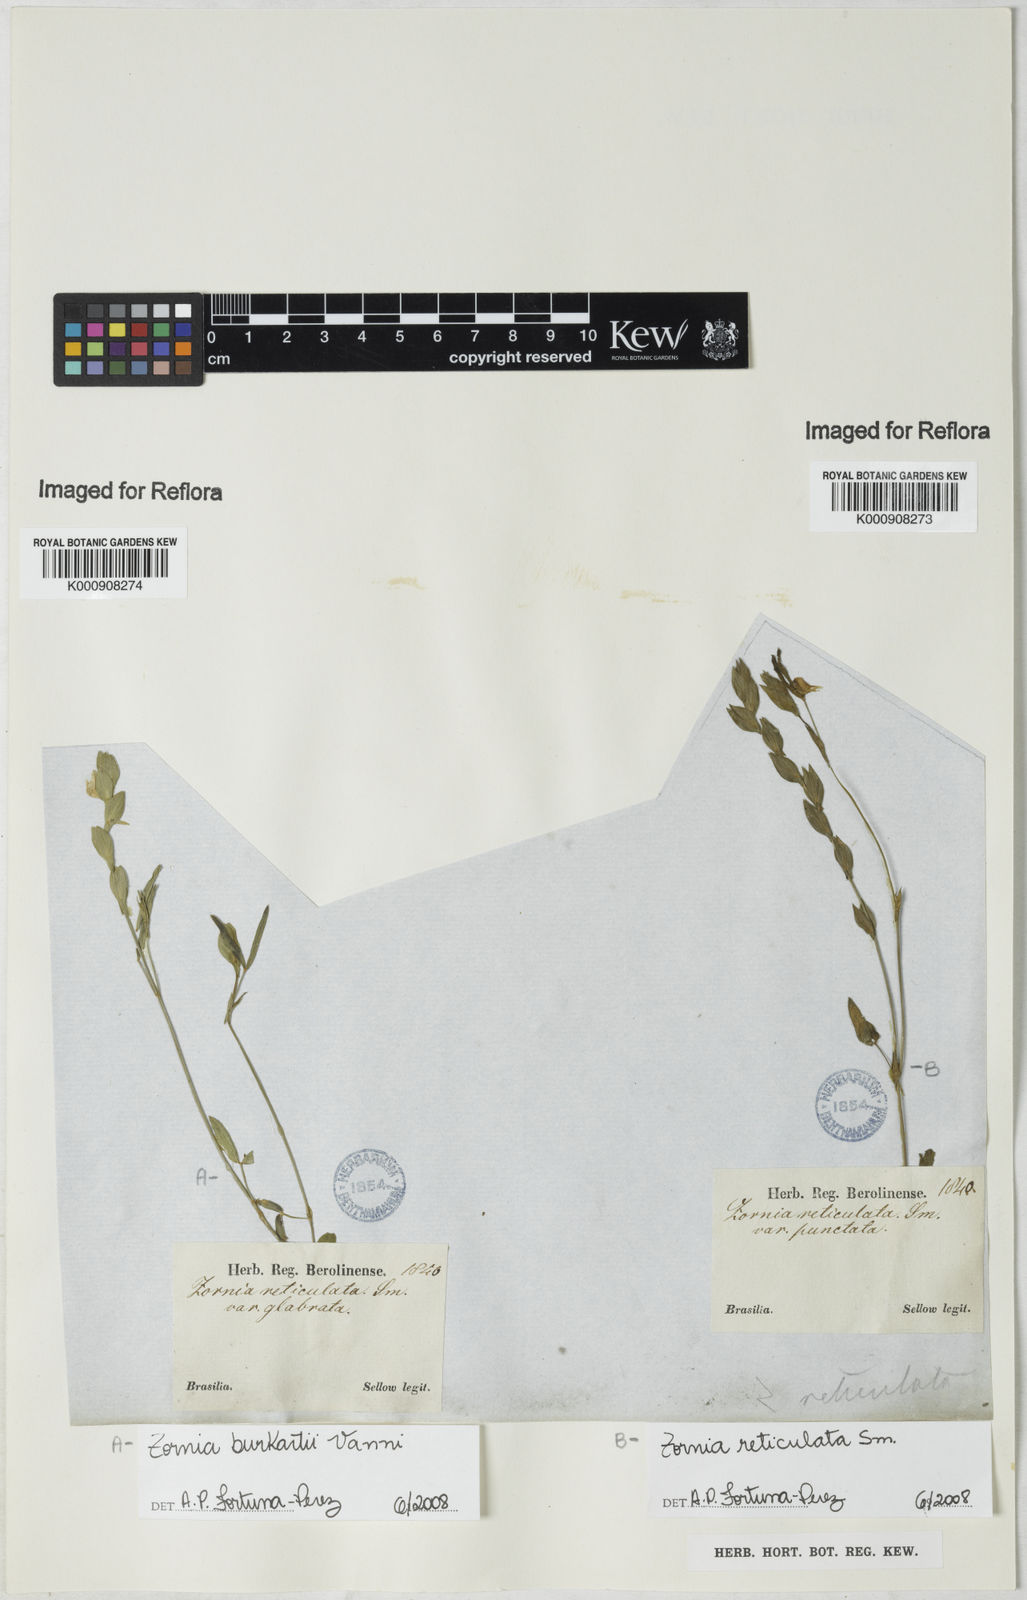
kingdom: Plantae
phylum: Tracheophyta
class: Magnoliopsida
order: Fabales
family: Fabaceae
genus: Zornia
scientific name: Zornia
